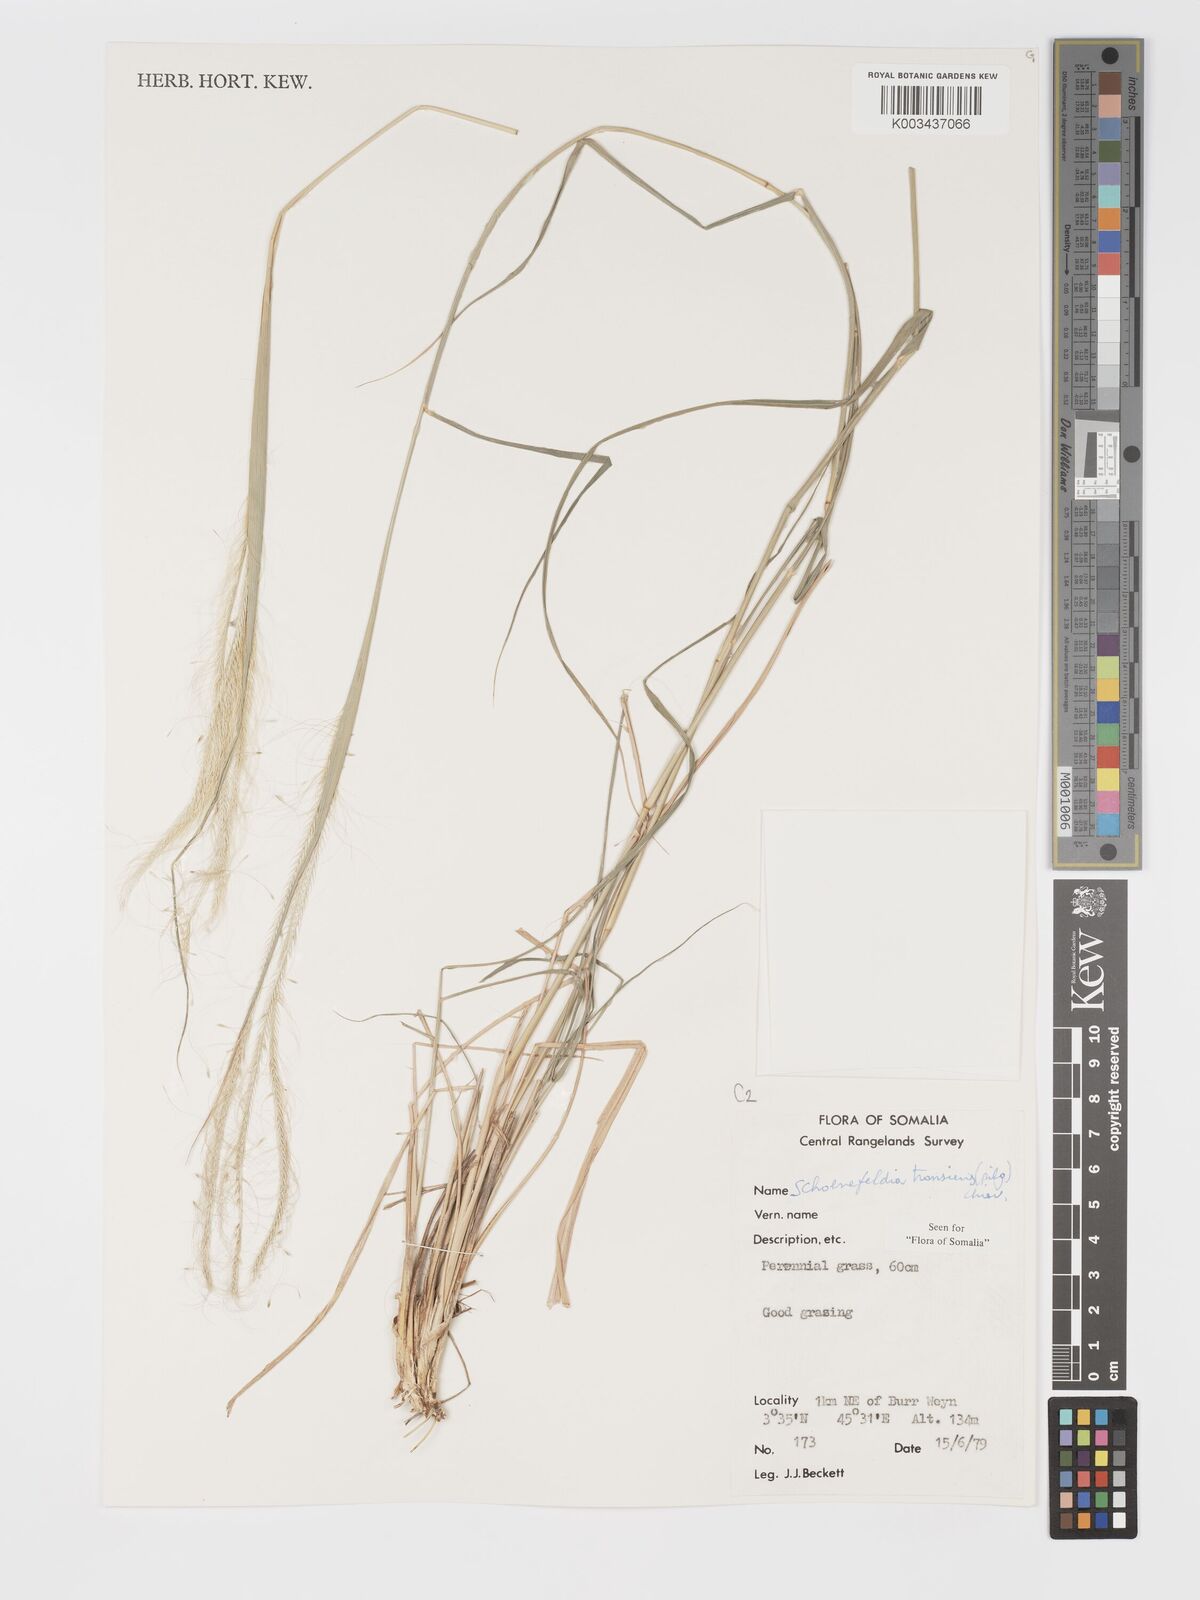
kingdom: Plantae
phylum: Tracheophyta
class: Liliopsida
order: Poales
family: Poaceae
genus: Schoenefeldia
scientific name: Schoenefeldia transiens
